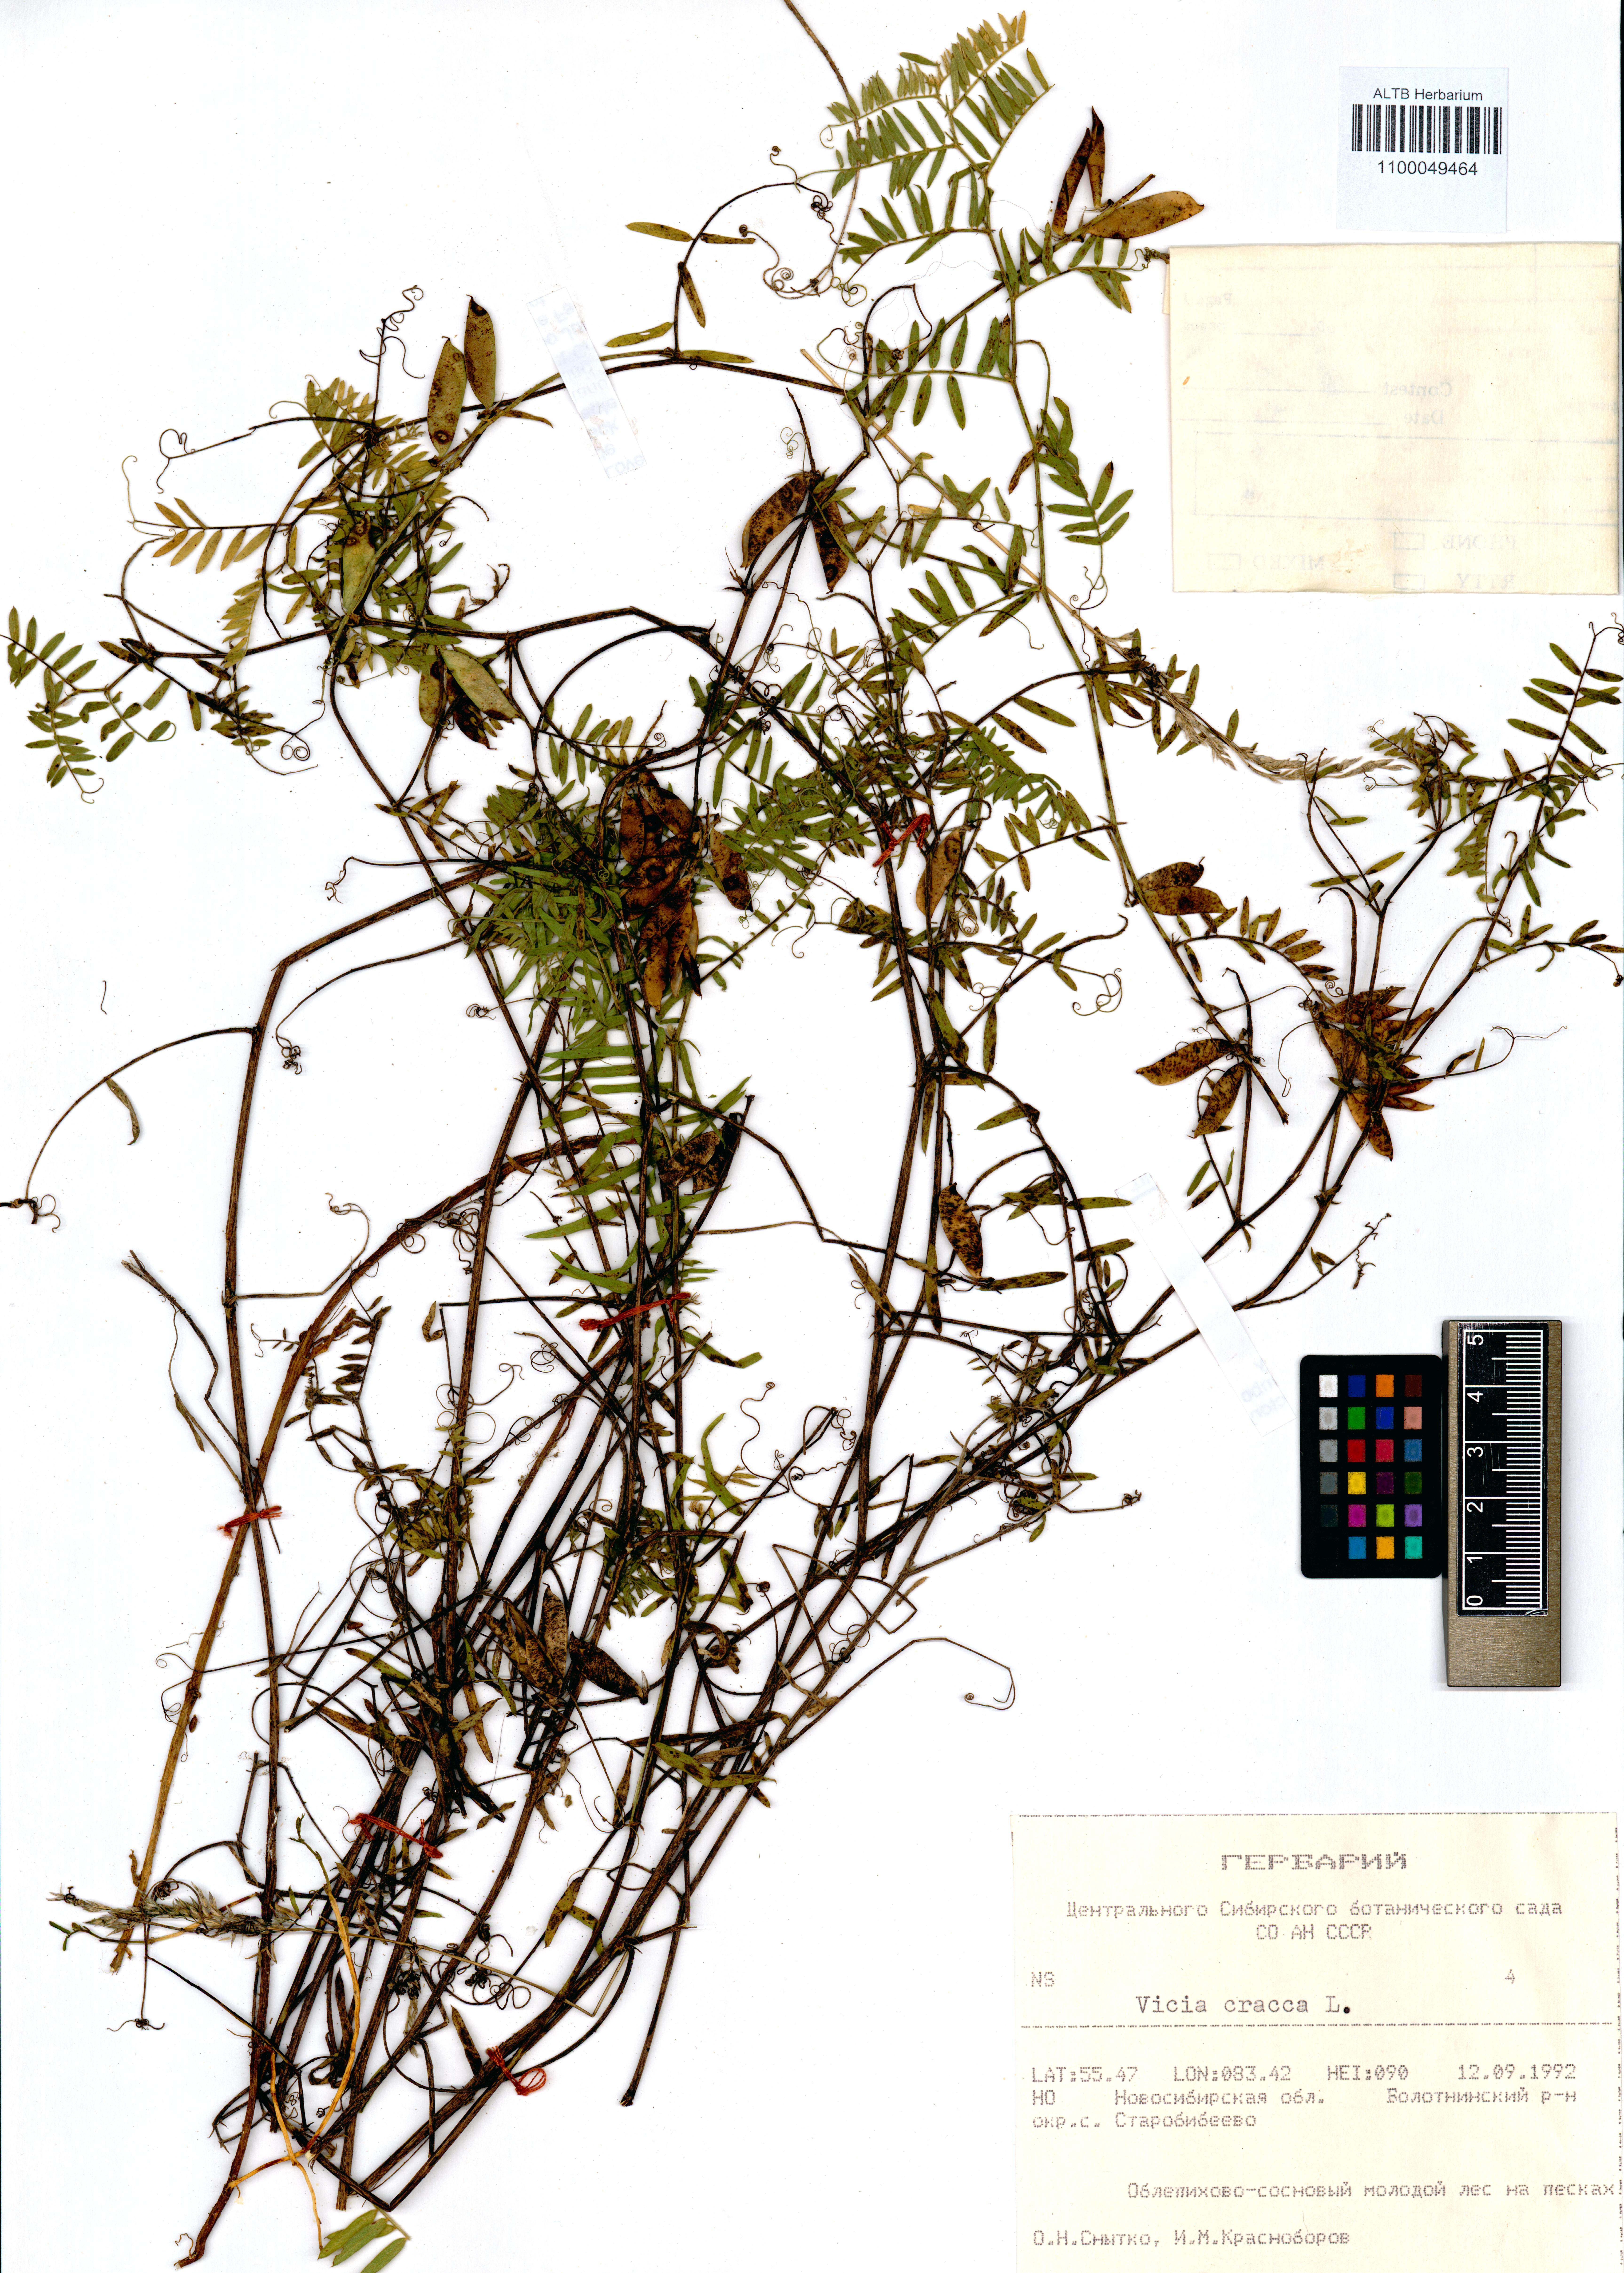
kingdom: Plantae
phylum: Tracheophyta
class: Magnoliopsida
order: Fabales
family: Fabaceae
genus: Vicia
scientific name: Vicia cracca
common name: Bird vetch
